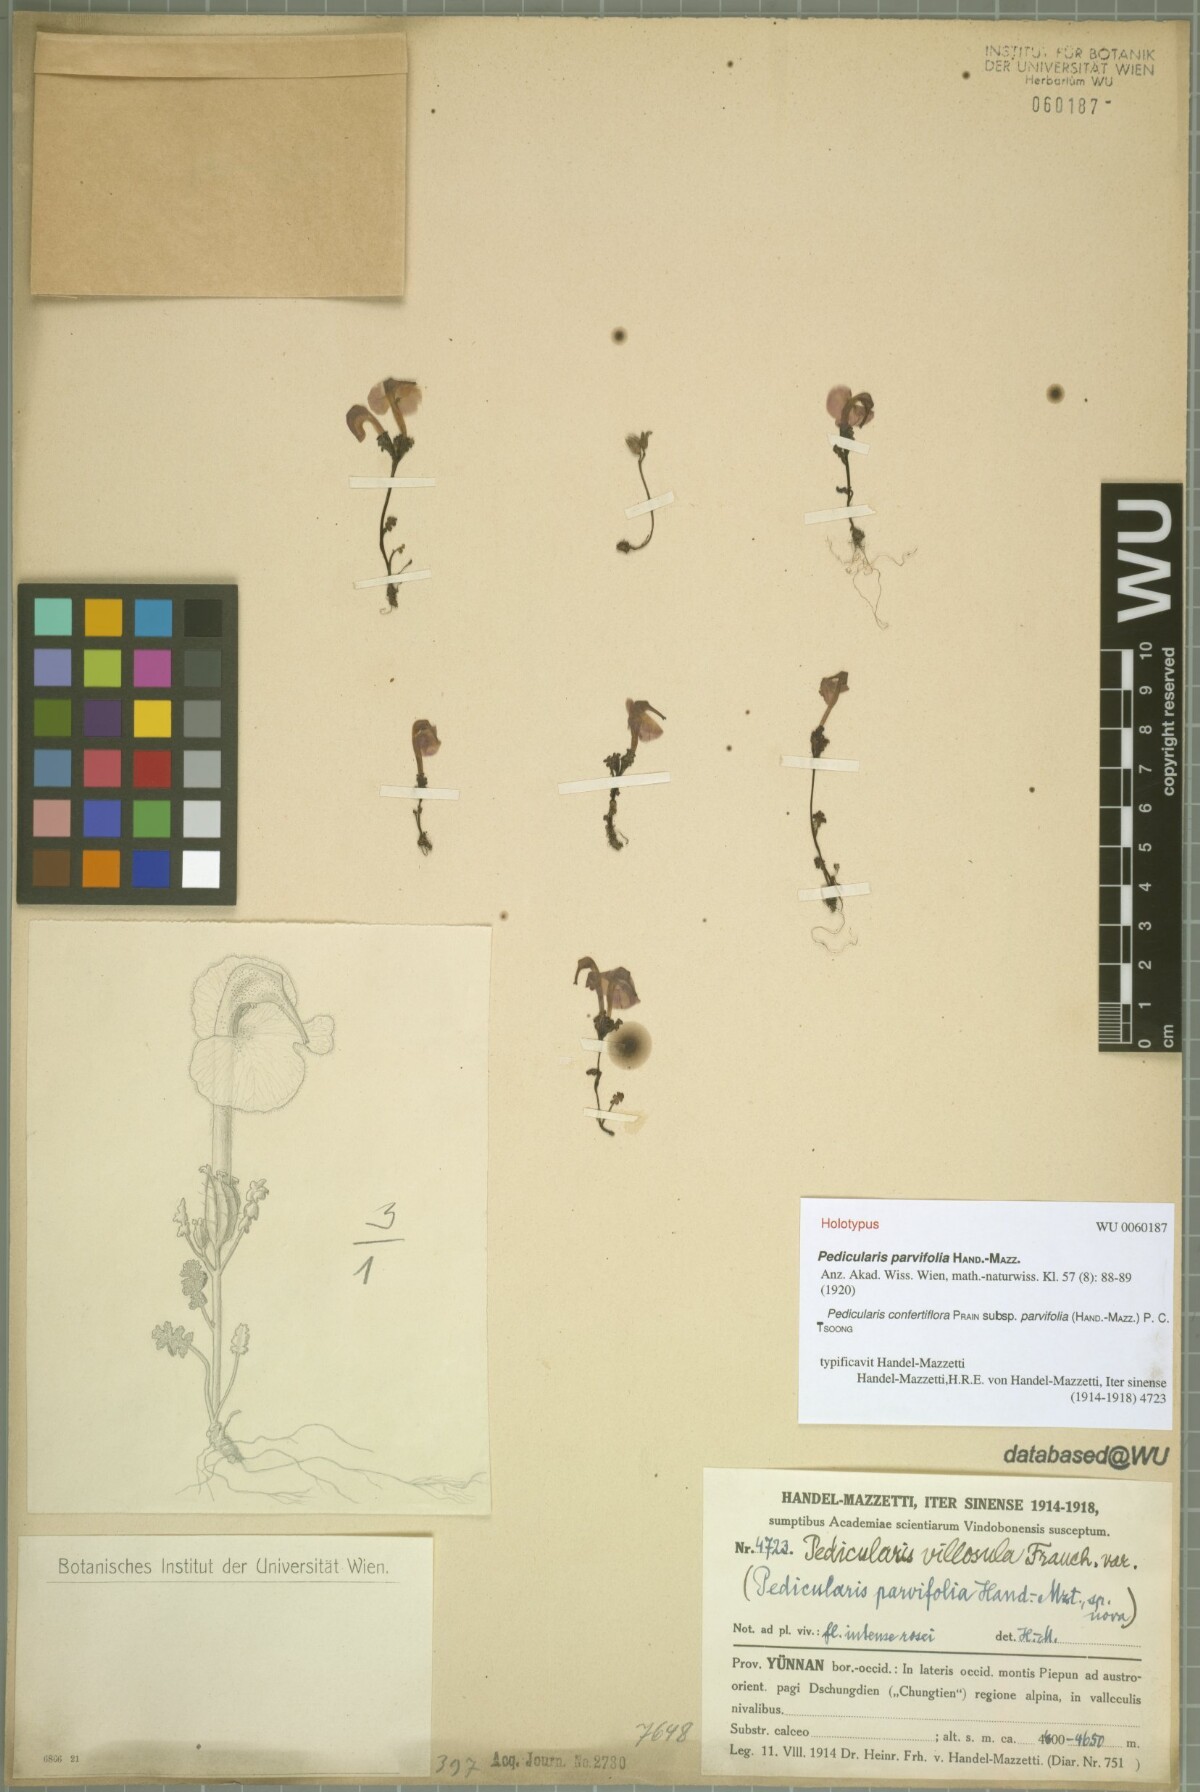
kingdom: Plantae
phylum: Tracheophyta
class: Magnoliopsida
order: Lamiales
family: Orobanchaceae
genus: Pedicularis
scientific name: Pedicularis confertiflora
